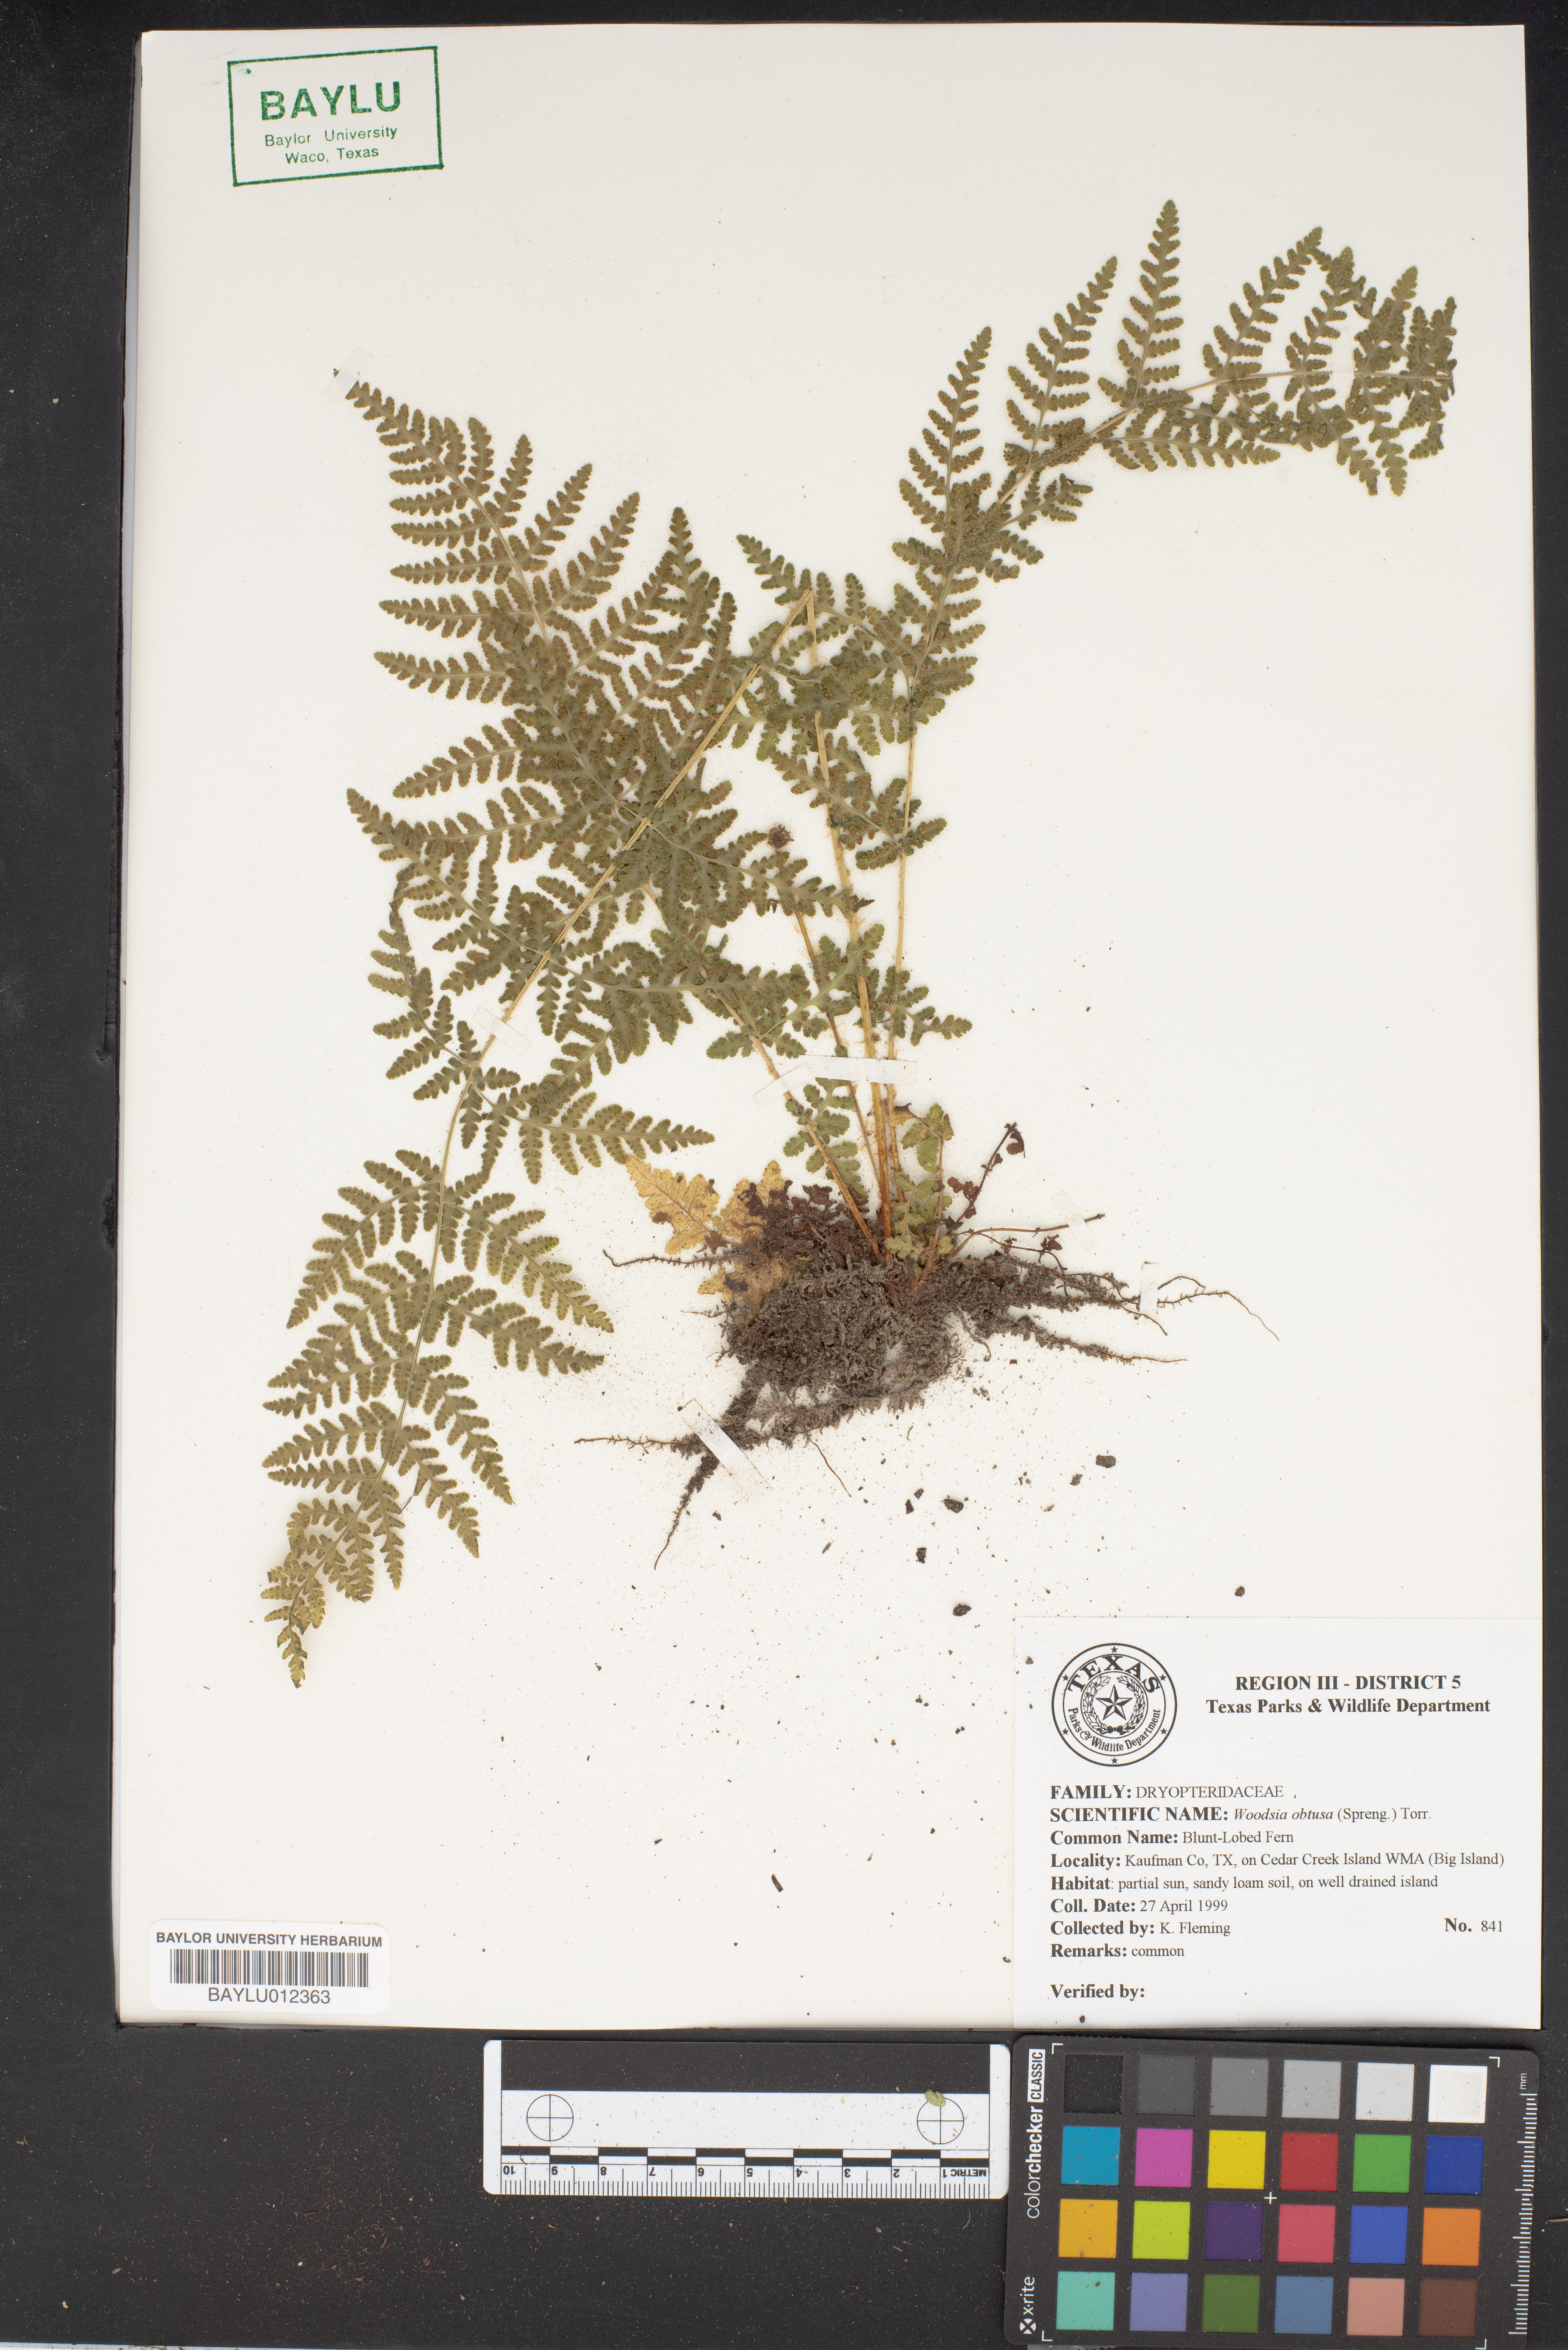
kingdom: Plantae
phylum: Tracheophyta
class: Polypodiopsida
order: Polypodiales
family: Woodsiaceae
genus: Physematium
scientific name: Physematium obtusum
